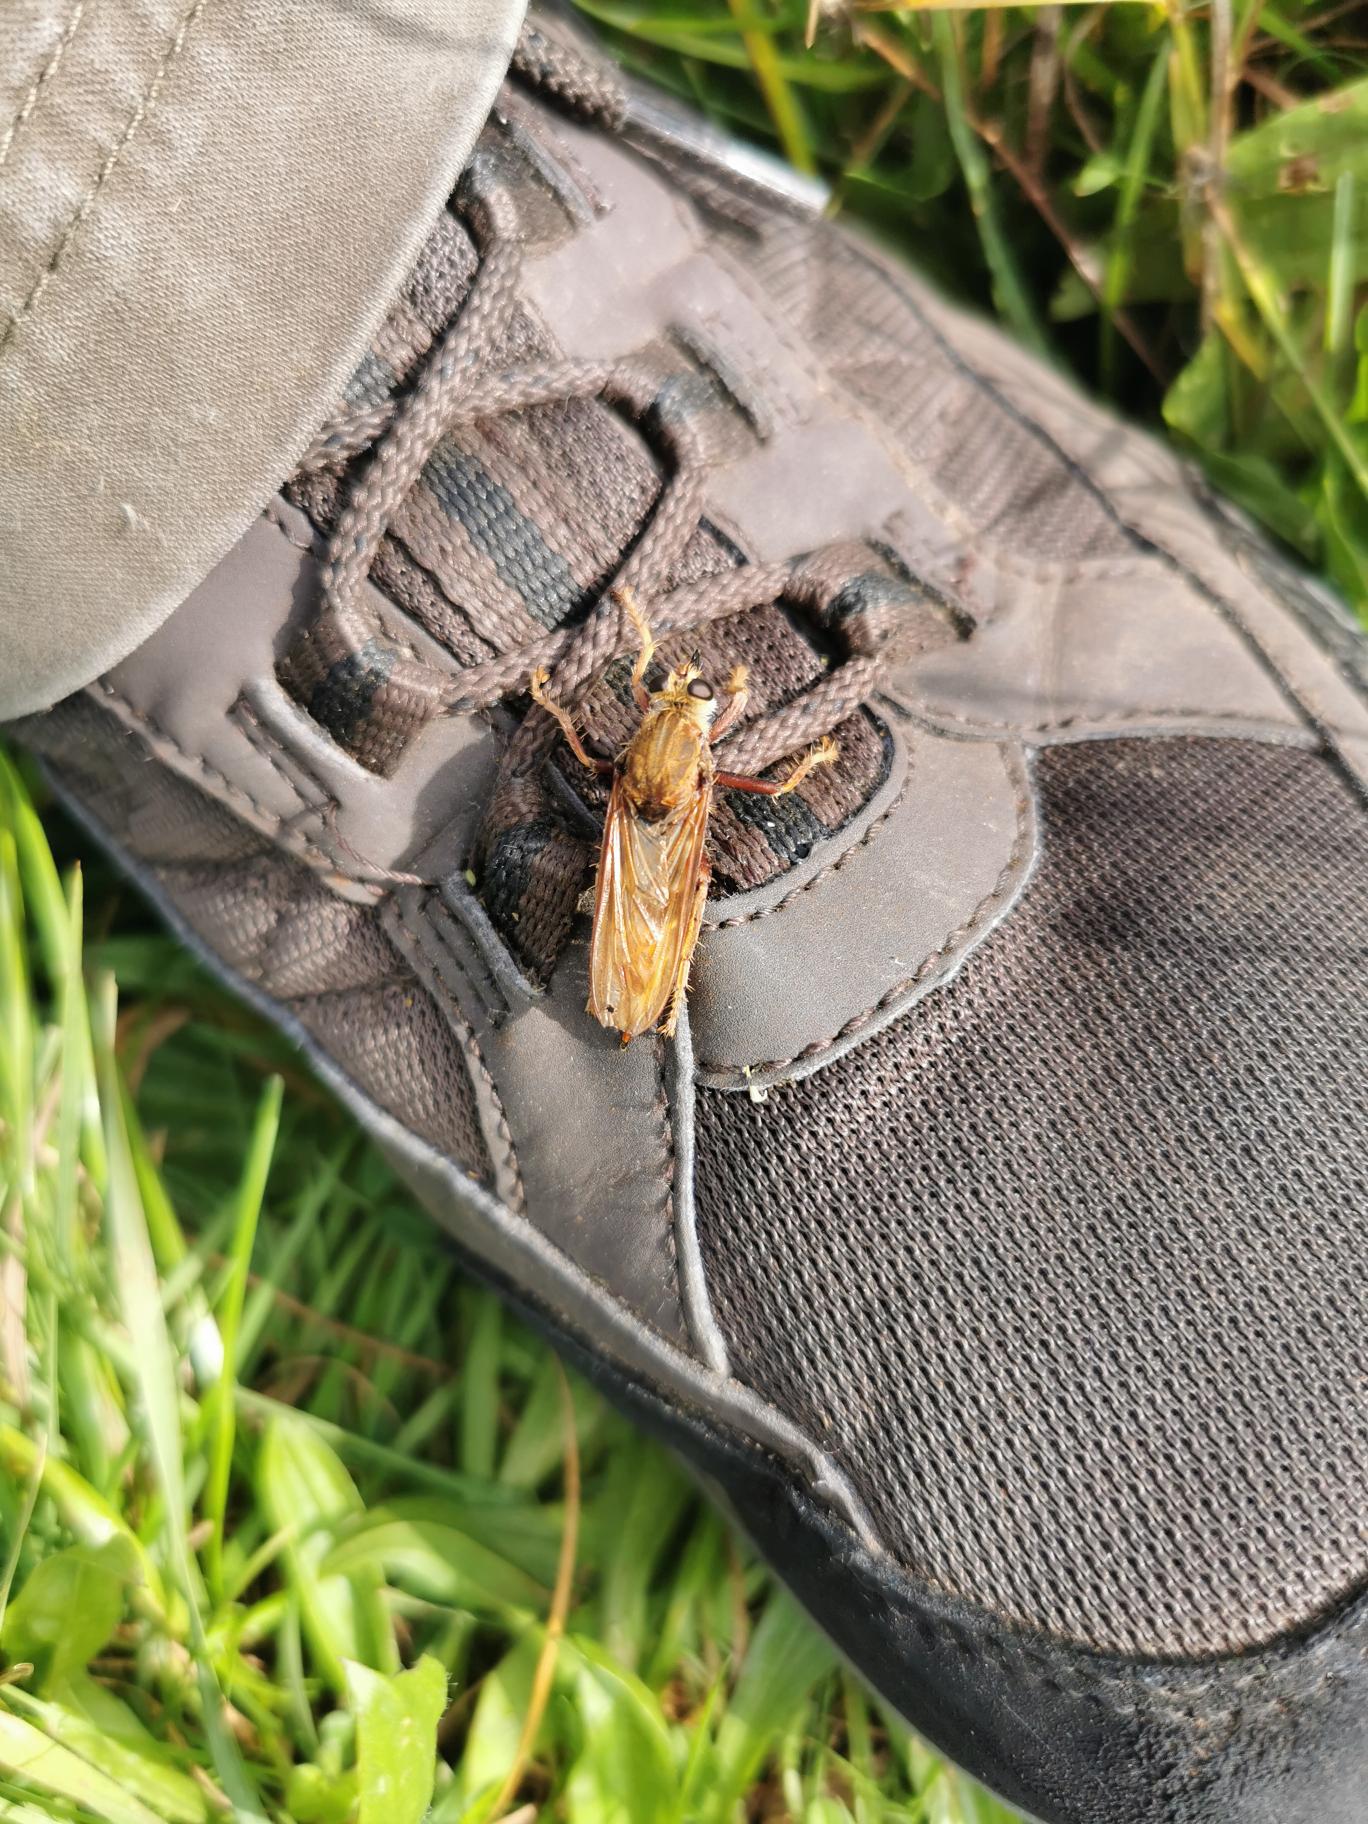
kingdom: Animalia
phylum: Arthropoda
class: Insecta
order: Diptera
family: Asilidae
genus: Asilus
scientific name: Asilus crabroniformis
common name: Stor gødningsrovflue
